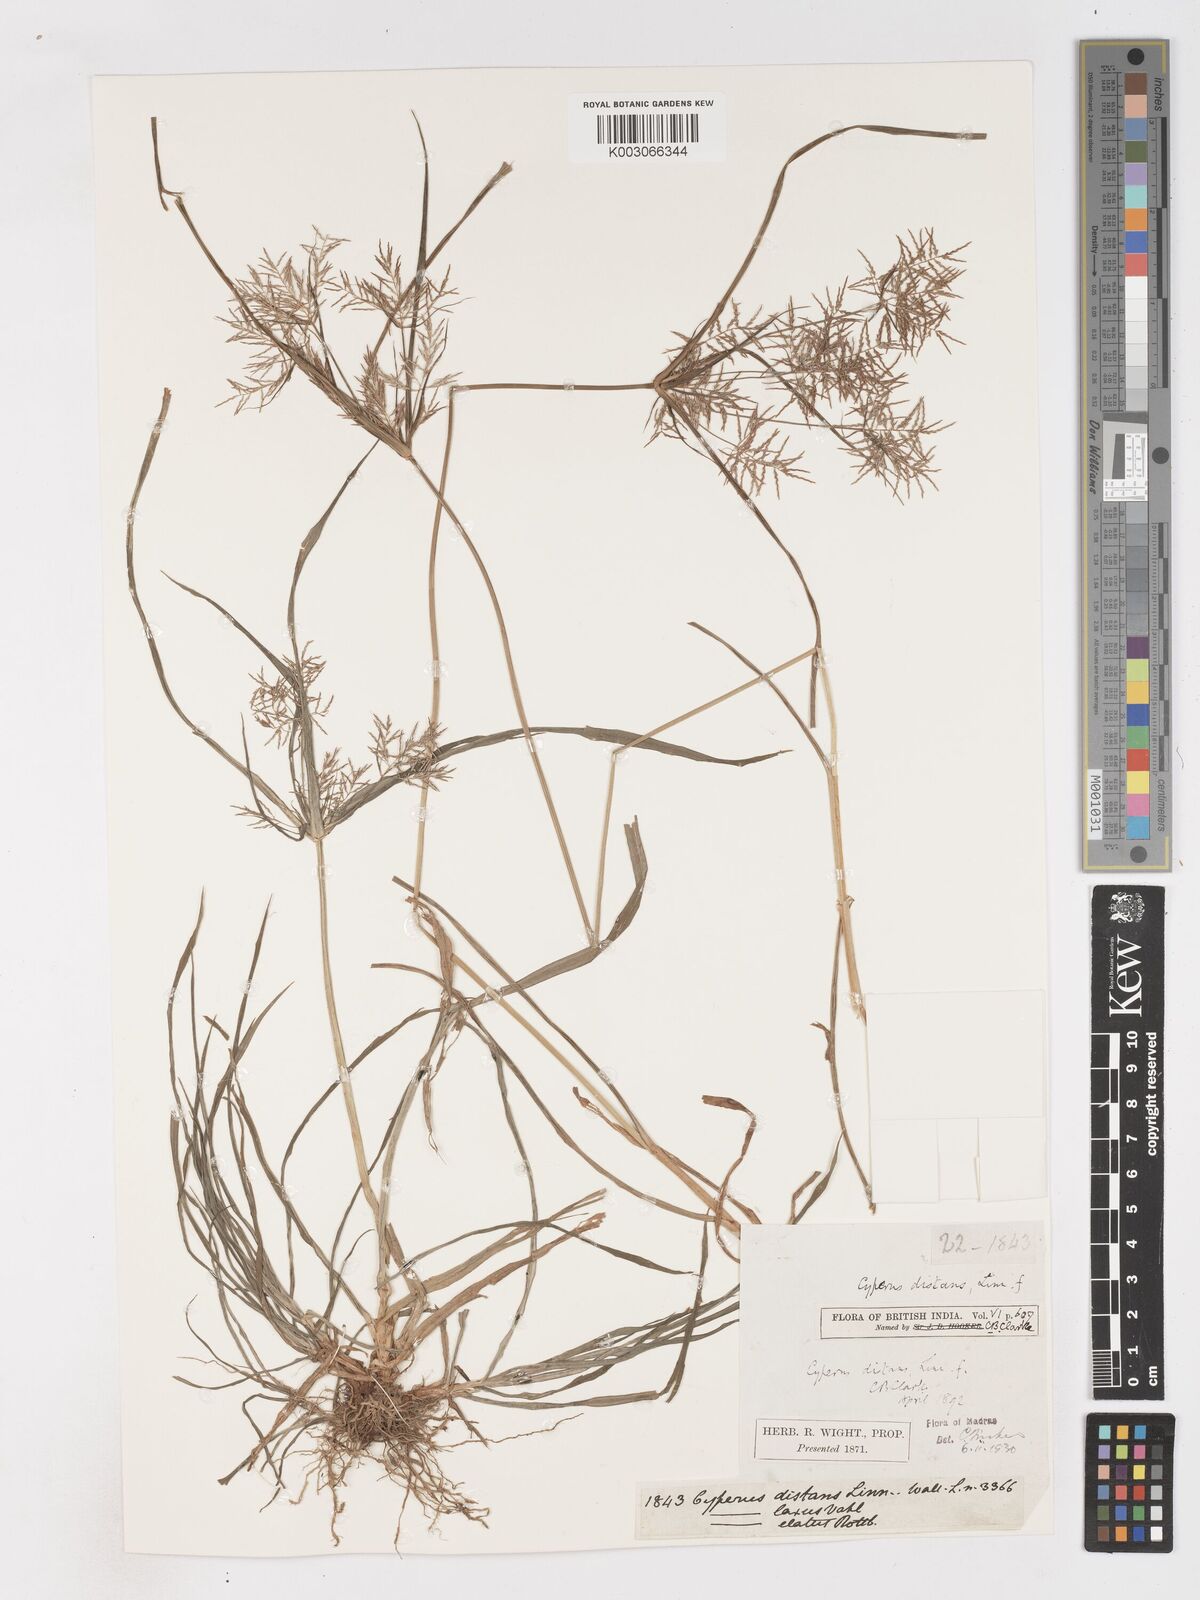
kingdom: Plantae
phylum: Tracheophyta
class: Liliopsida
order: Poales
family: Cyperaceae
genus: Cyperus
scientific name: Cyperus distans
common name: Slender cyperus
